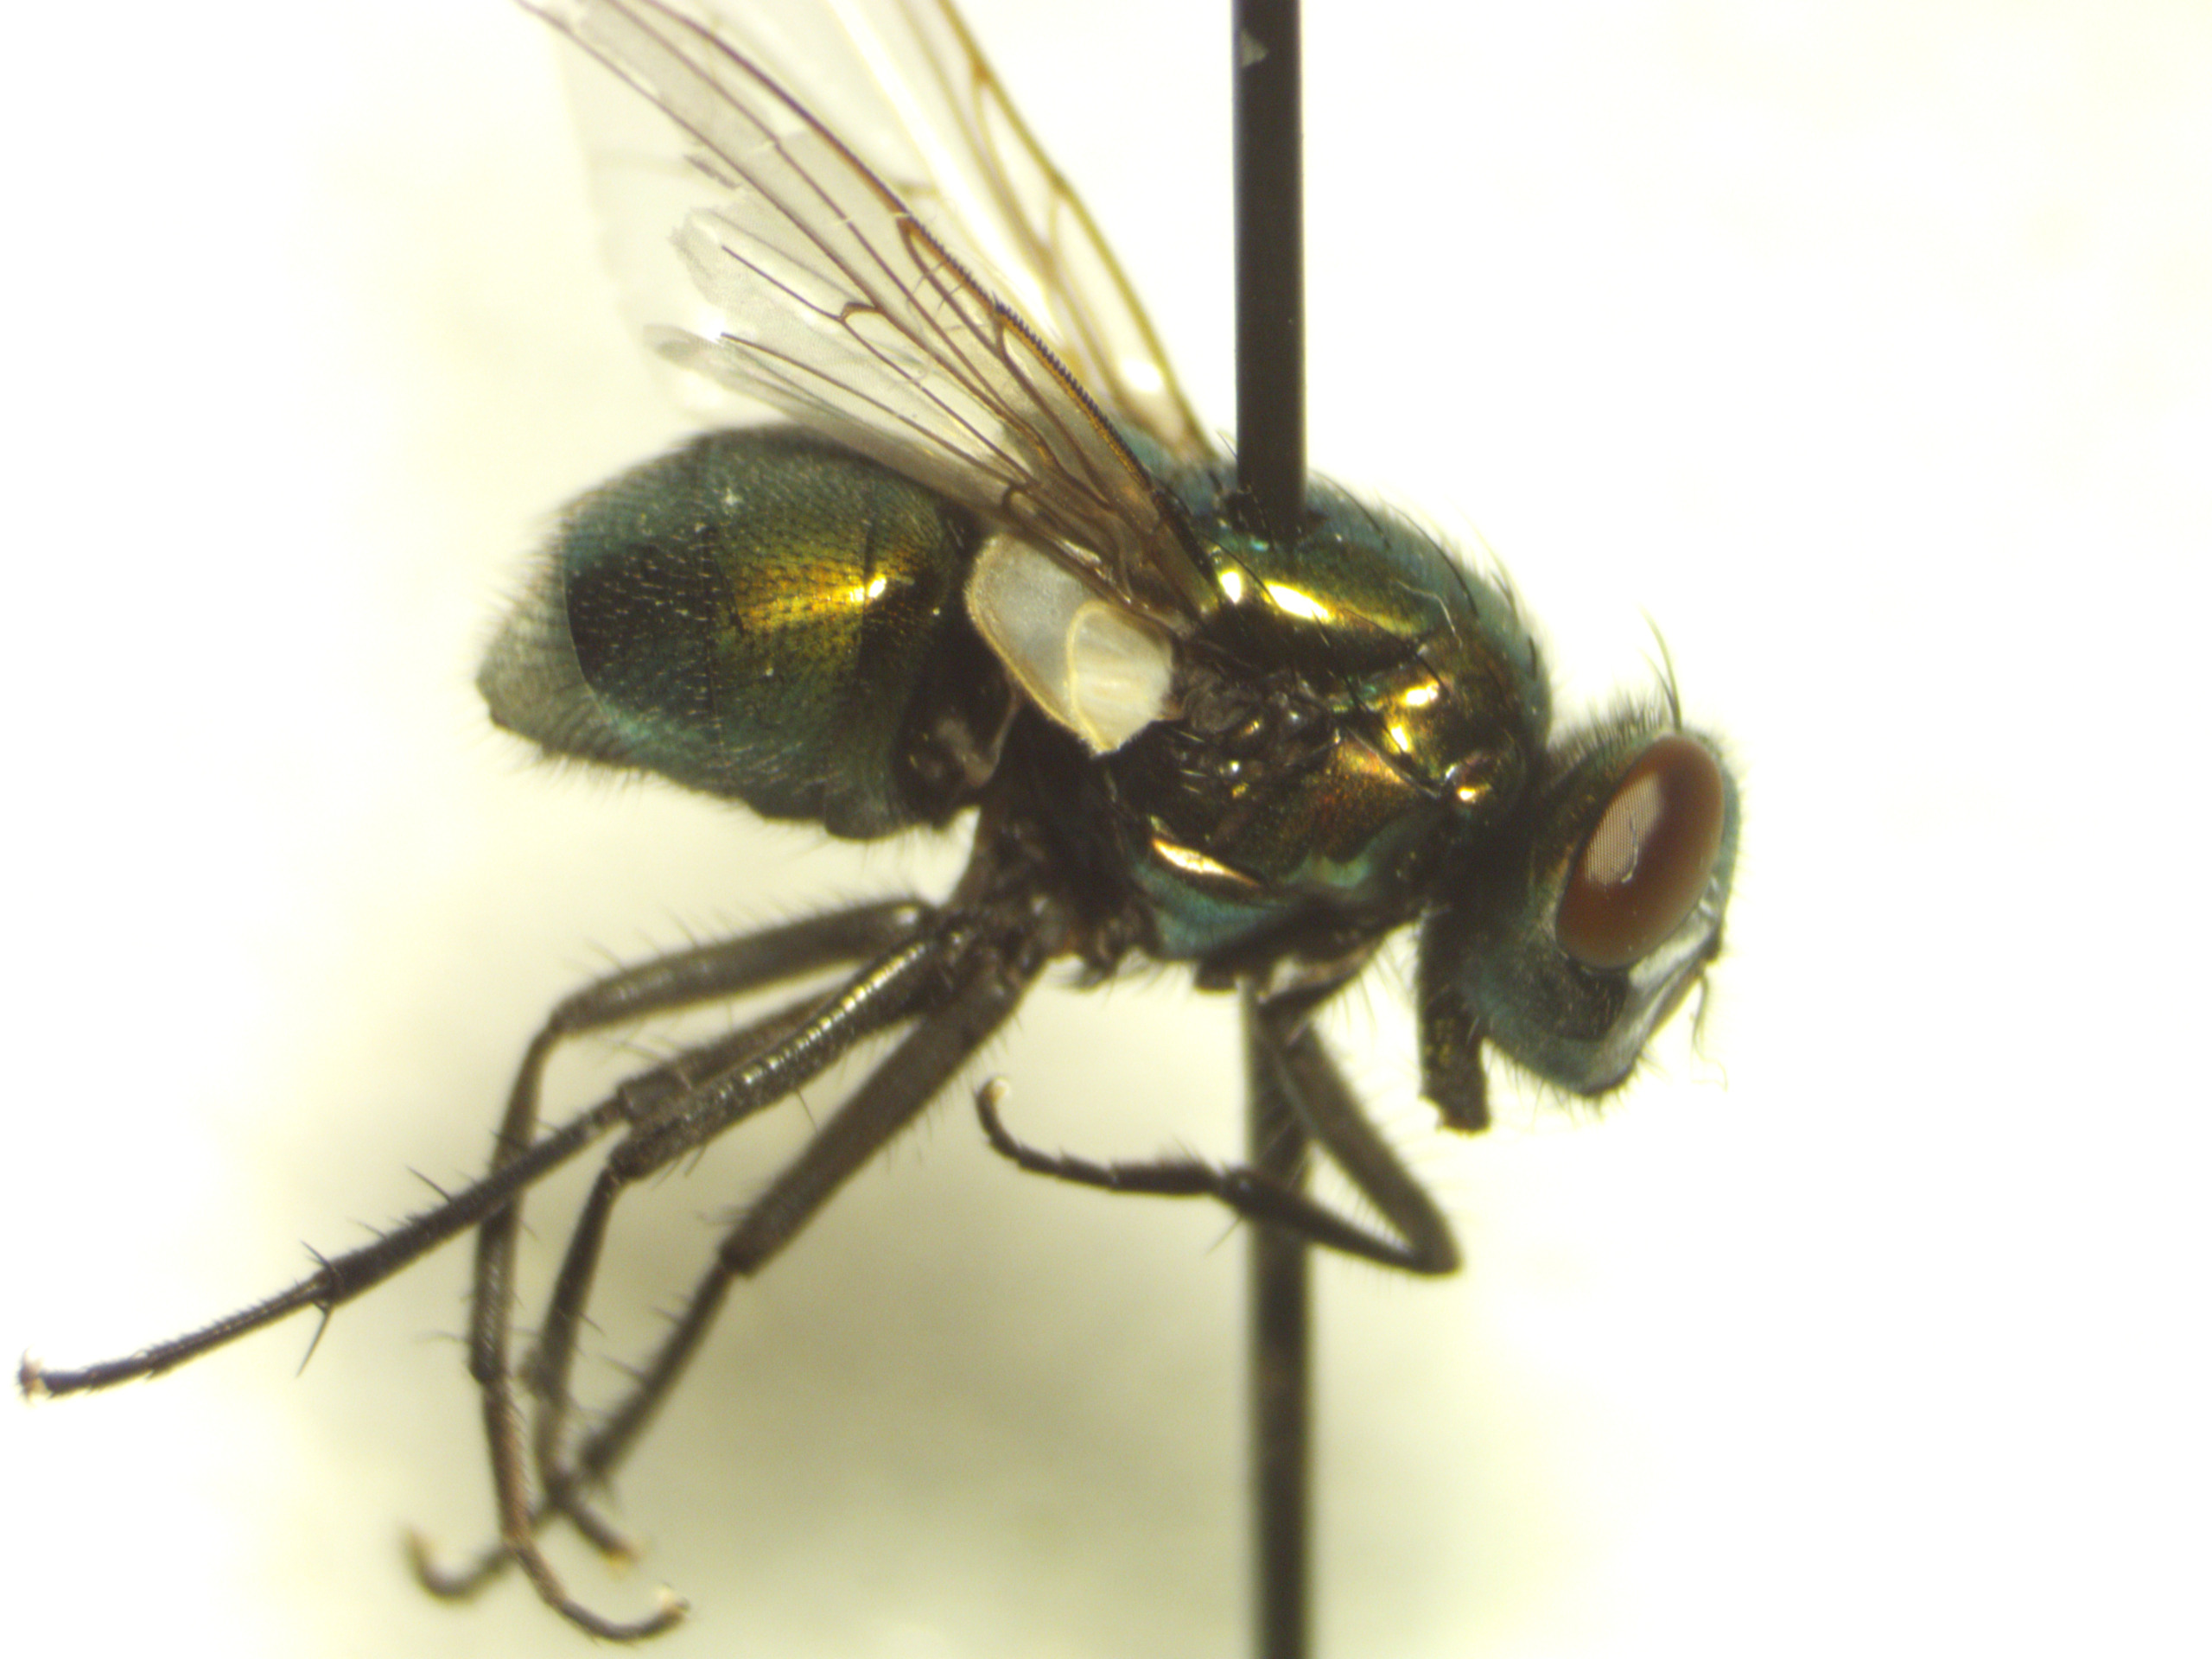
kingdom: Animalia
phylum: Arthropoda
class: Insecta
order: Diptera
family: Muscidae
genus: Neomyia
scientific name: Neomyia cornicina
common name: Grøn kokasseflue
